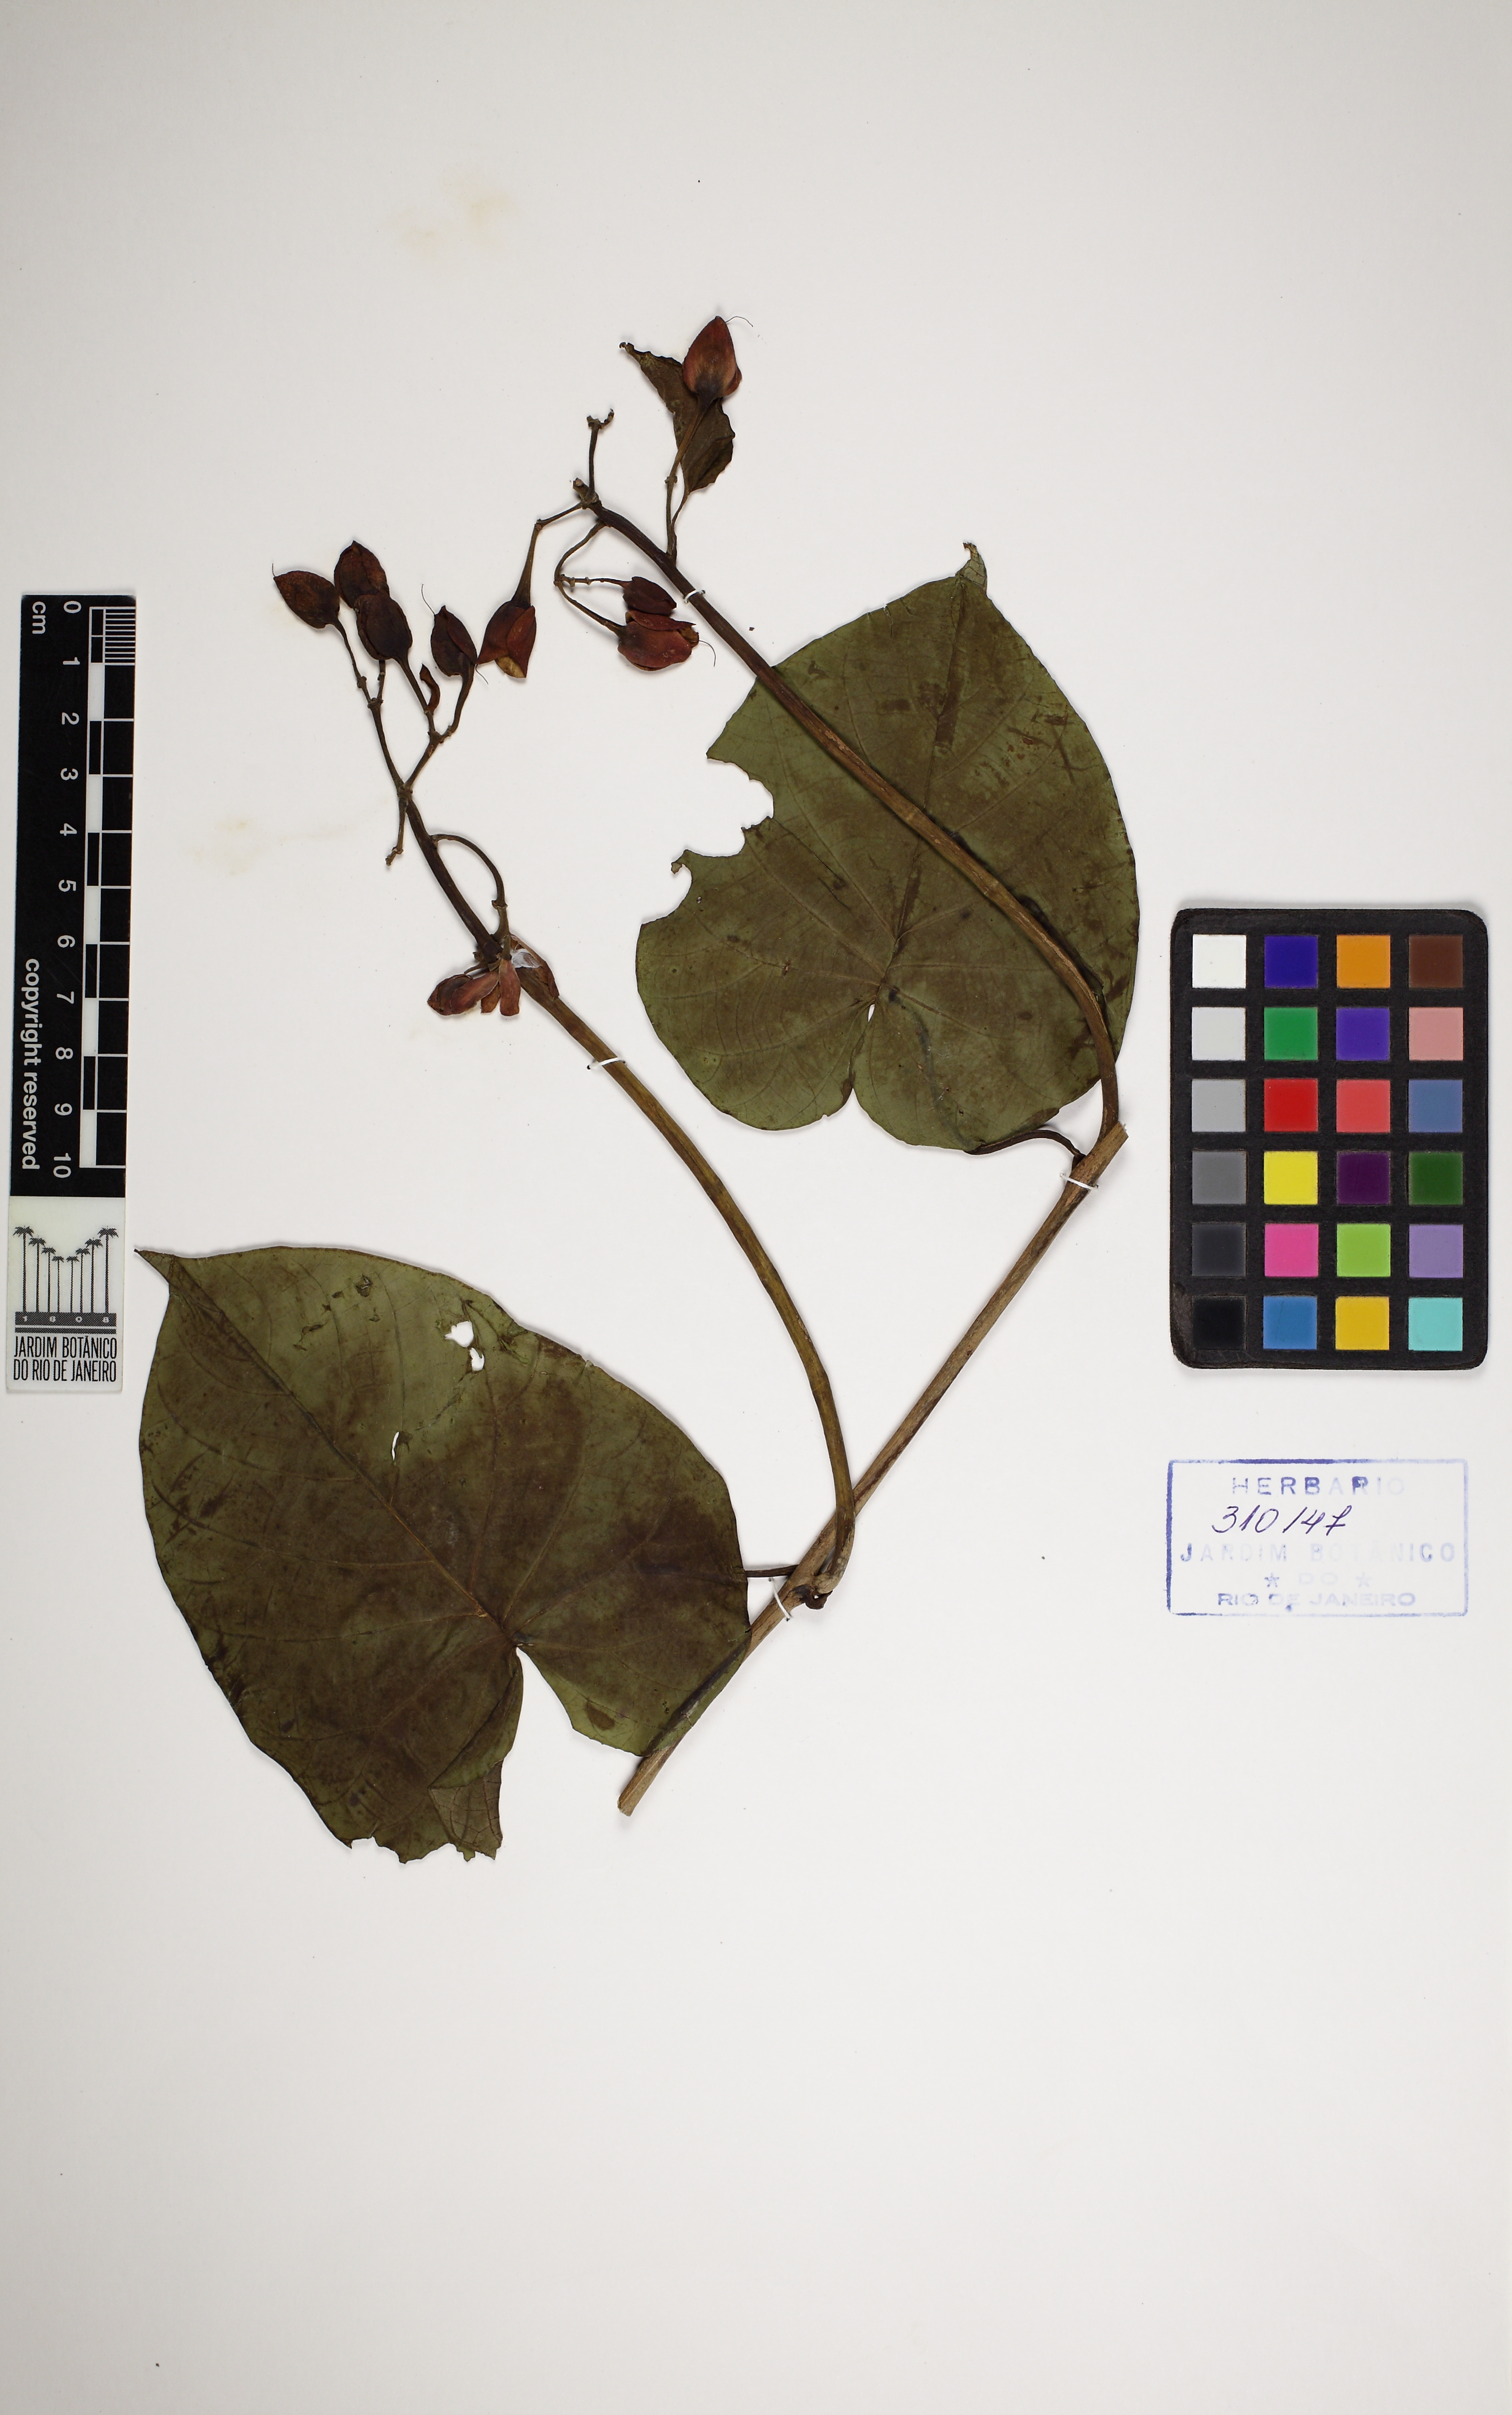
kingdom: Plantae
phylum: Tracheophyta
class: Magnoliopsida
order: Solanales
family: Convolvulaceae
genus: Ipomoea
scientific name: Ipomoea philomega
